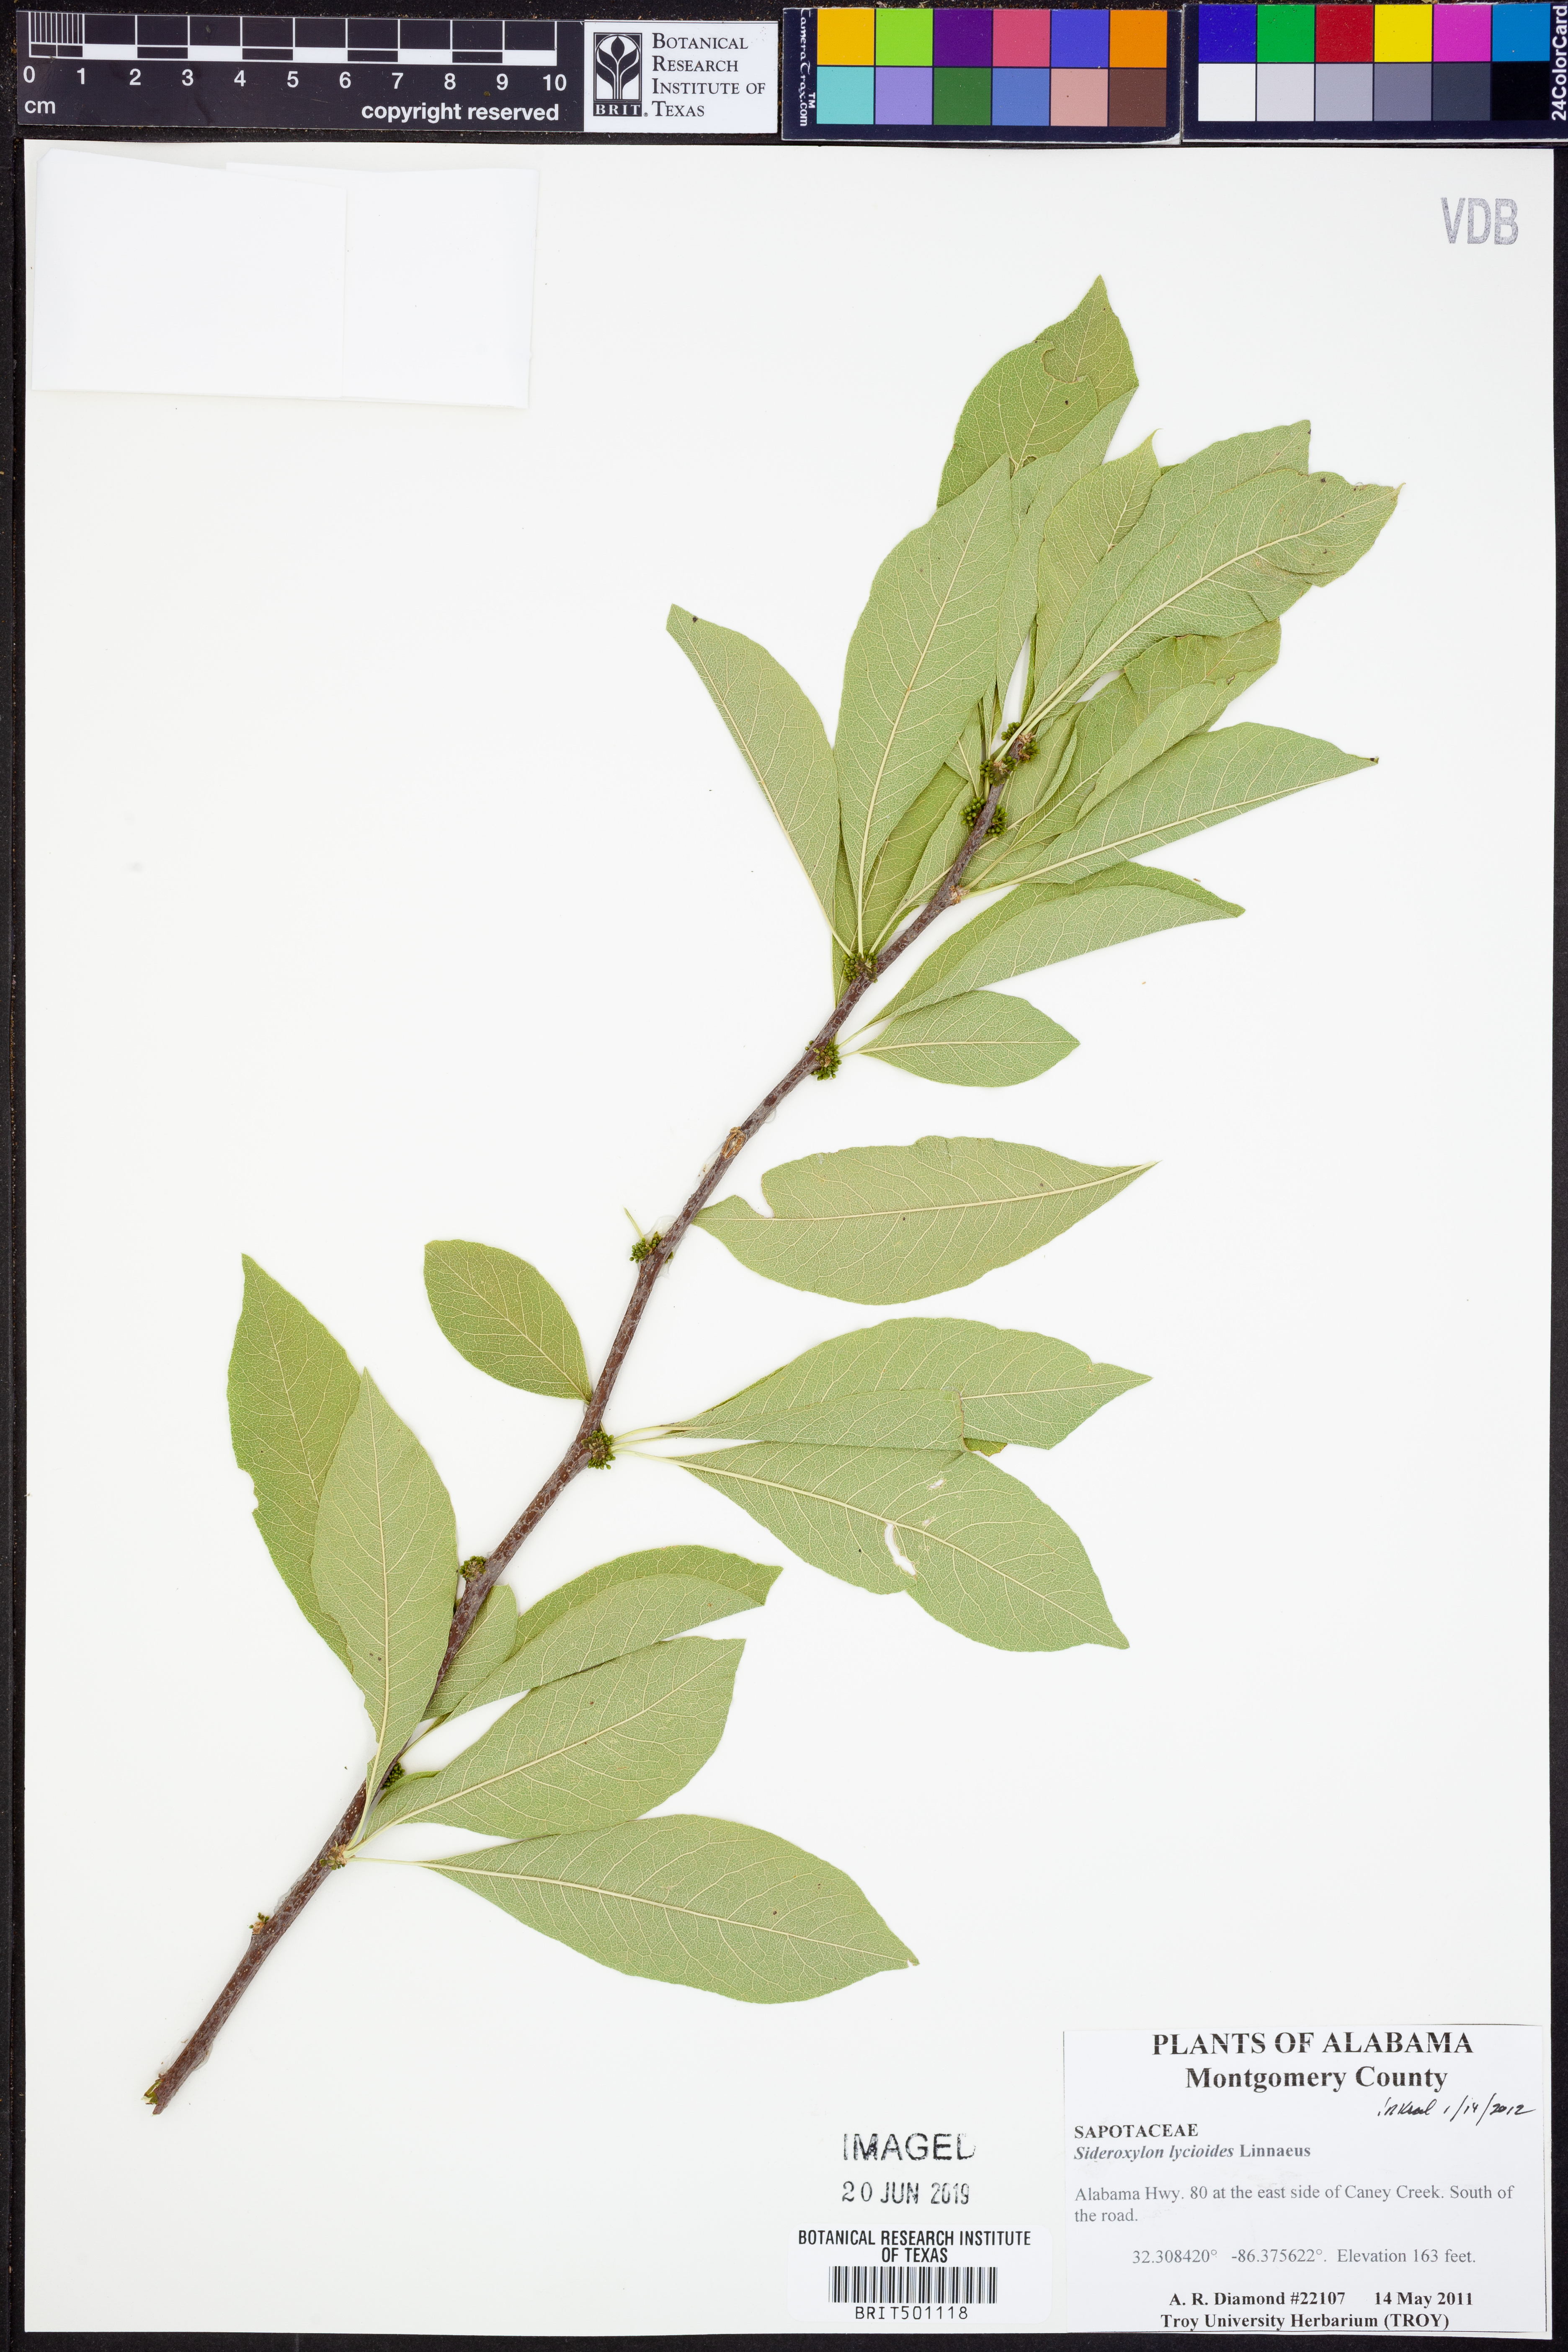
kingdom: Plantae
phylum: Tracheophyta
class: Magnoliopsida
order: Ericales
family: Sapotaceae
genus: Sideroxylon
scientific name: Sideroxylon lycioides
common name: Buckthorn bumelia
